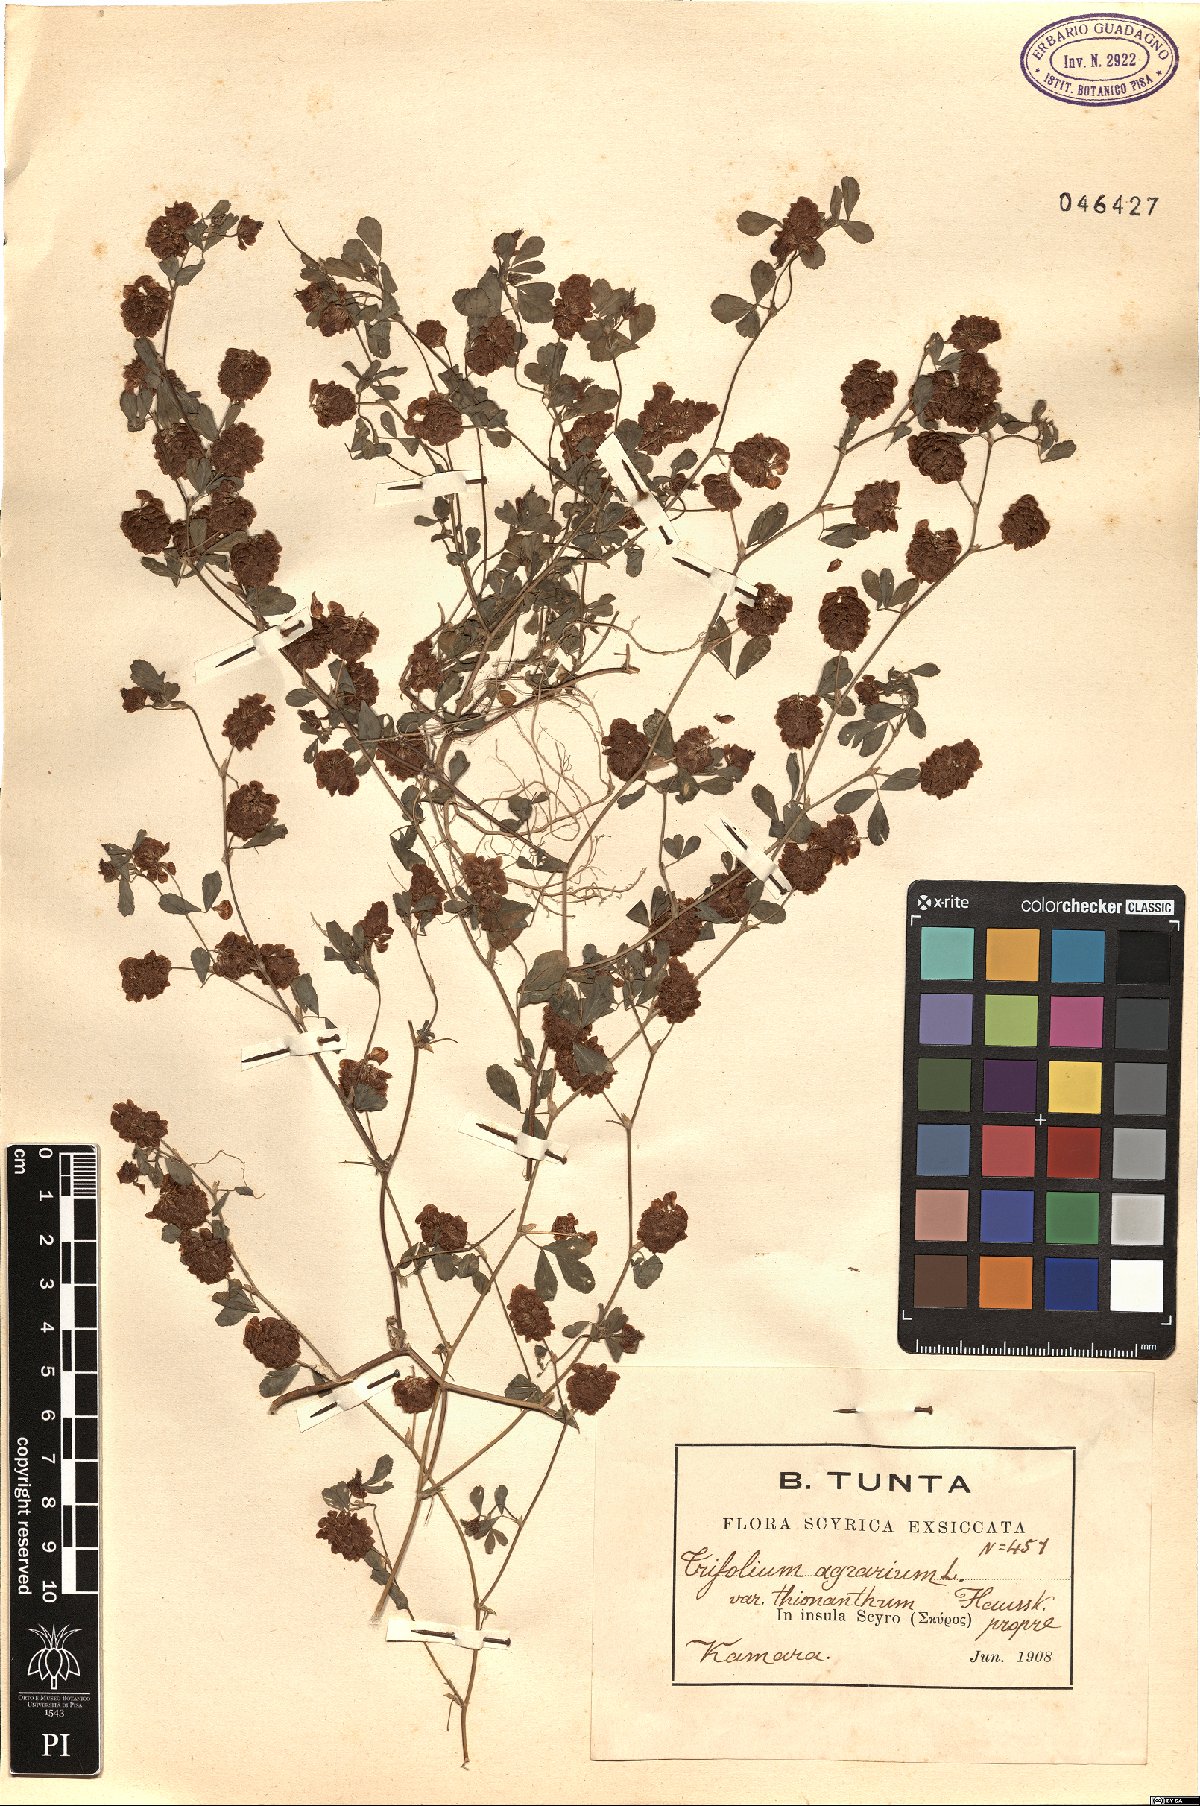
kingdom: Plantae
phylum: Tracheophyta
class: Magnoliopsida
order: Fabales
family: Fabaceae
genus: Trifolium
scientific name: Trifolium campestre
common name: Field clover
